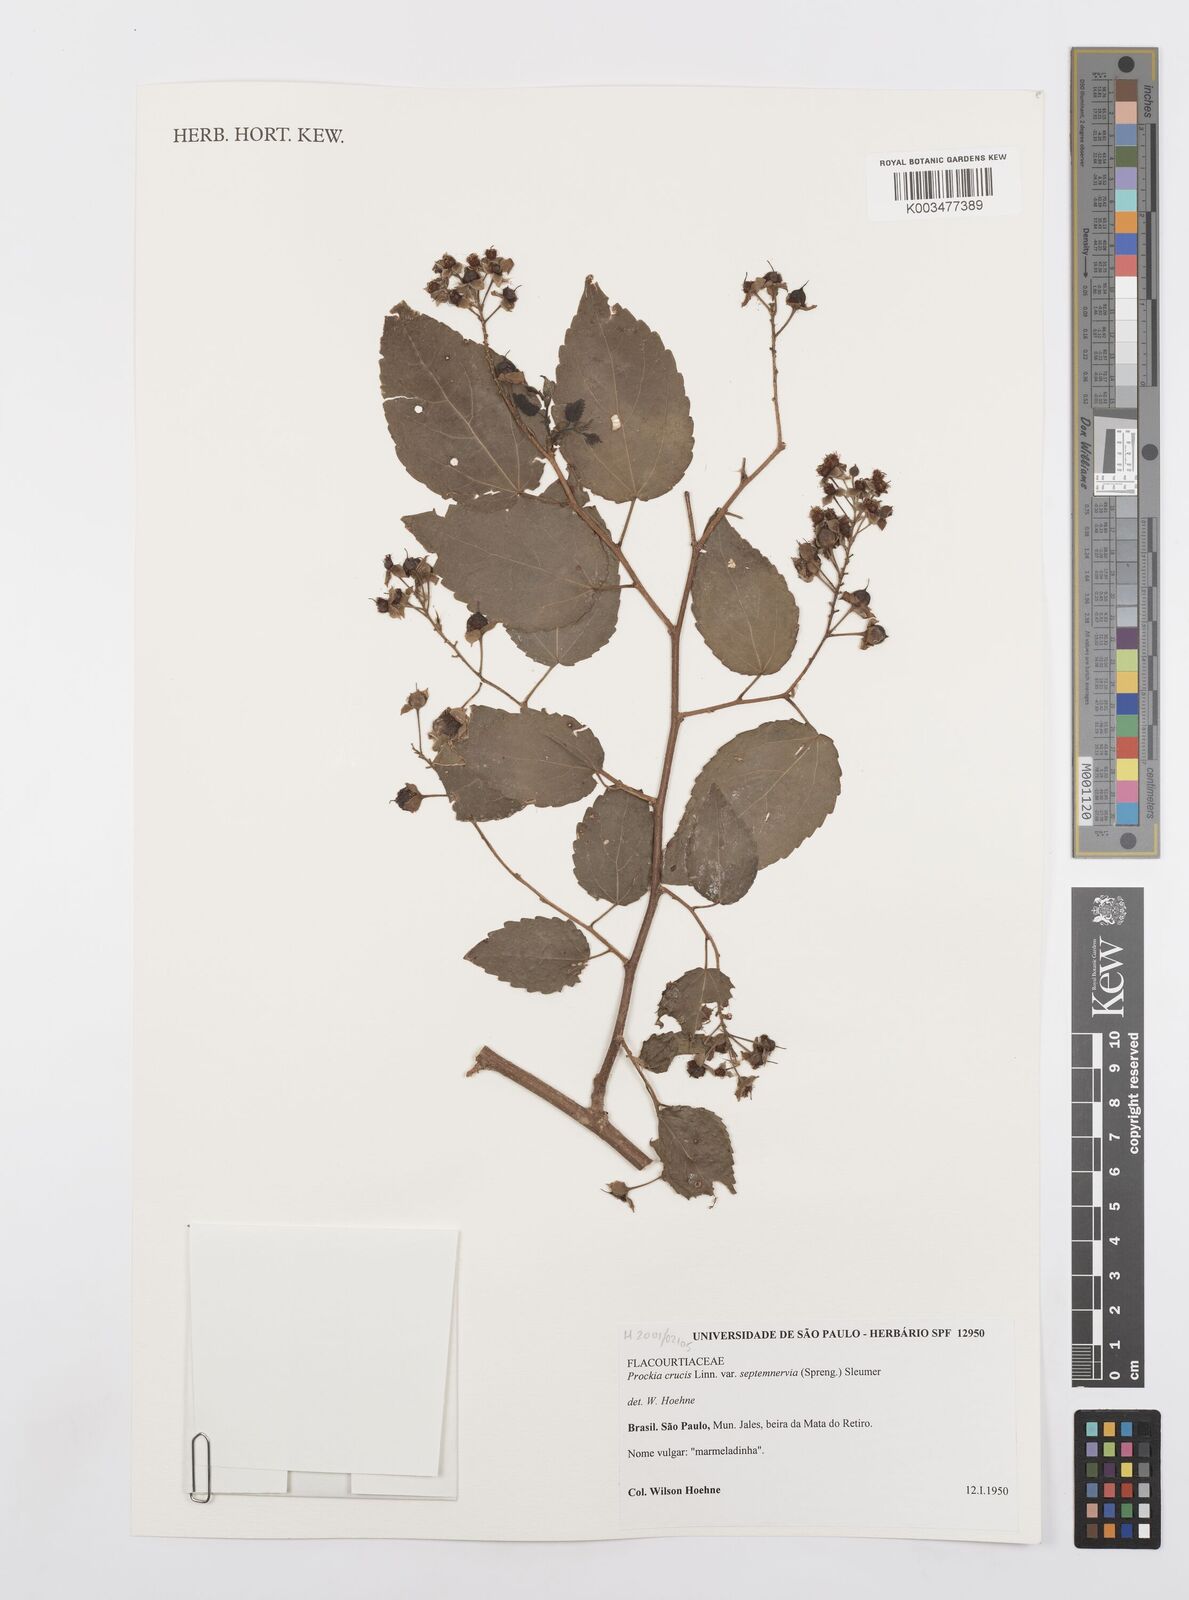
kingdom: Plantae
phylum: Tracheophyta
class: Magnoliopsida
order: Malpighiales
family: Salicaceae
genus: Prockia
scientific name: Prockia crucis
